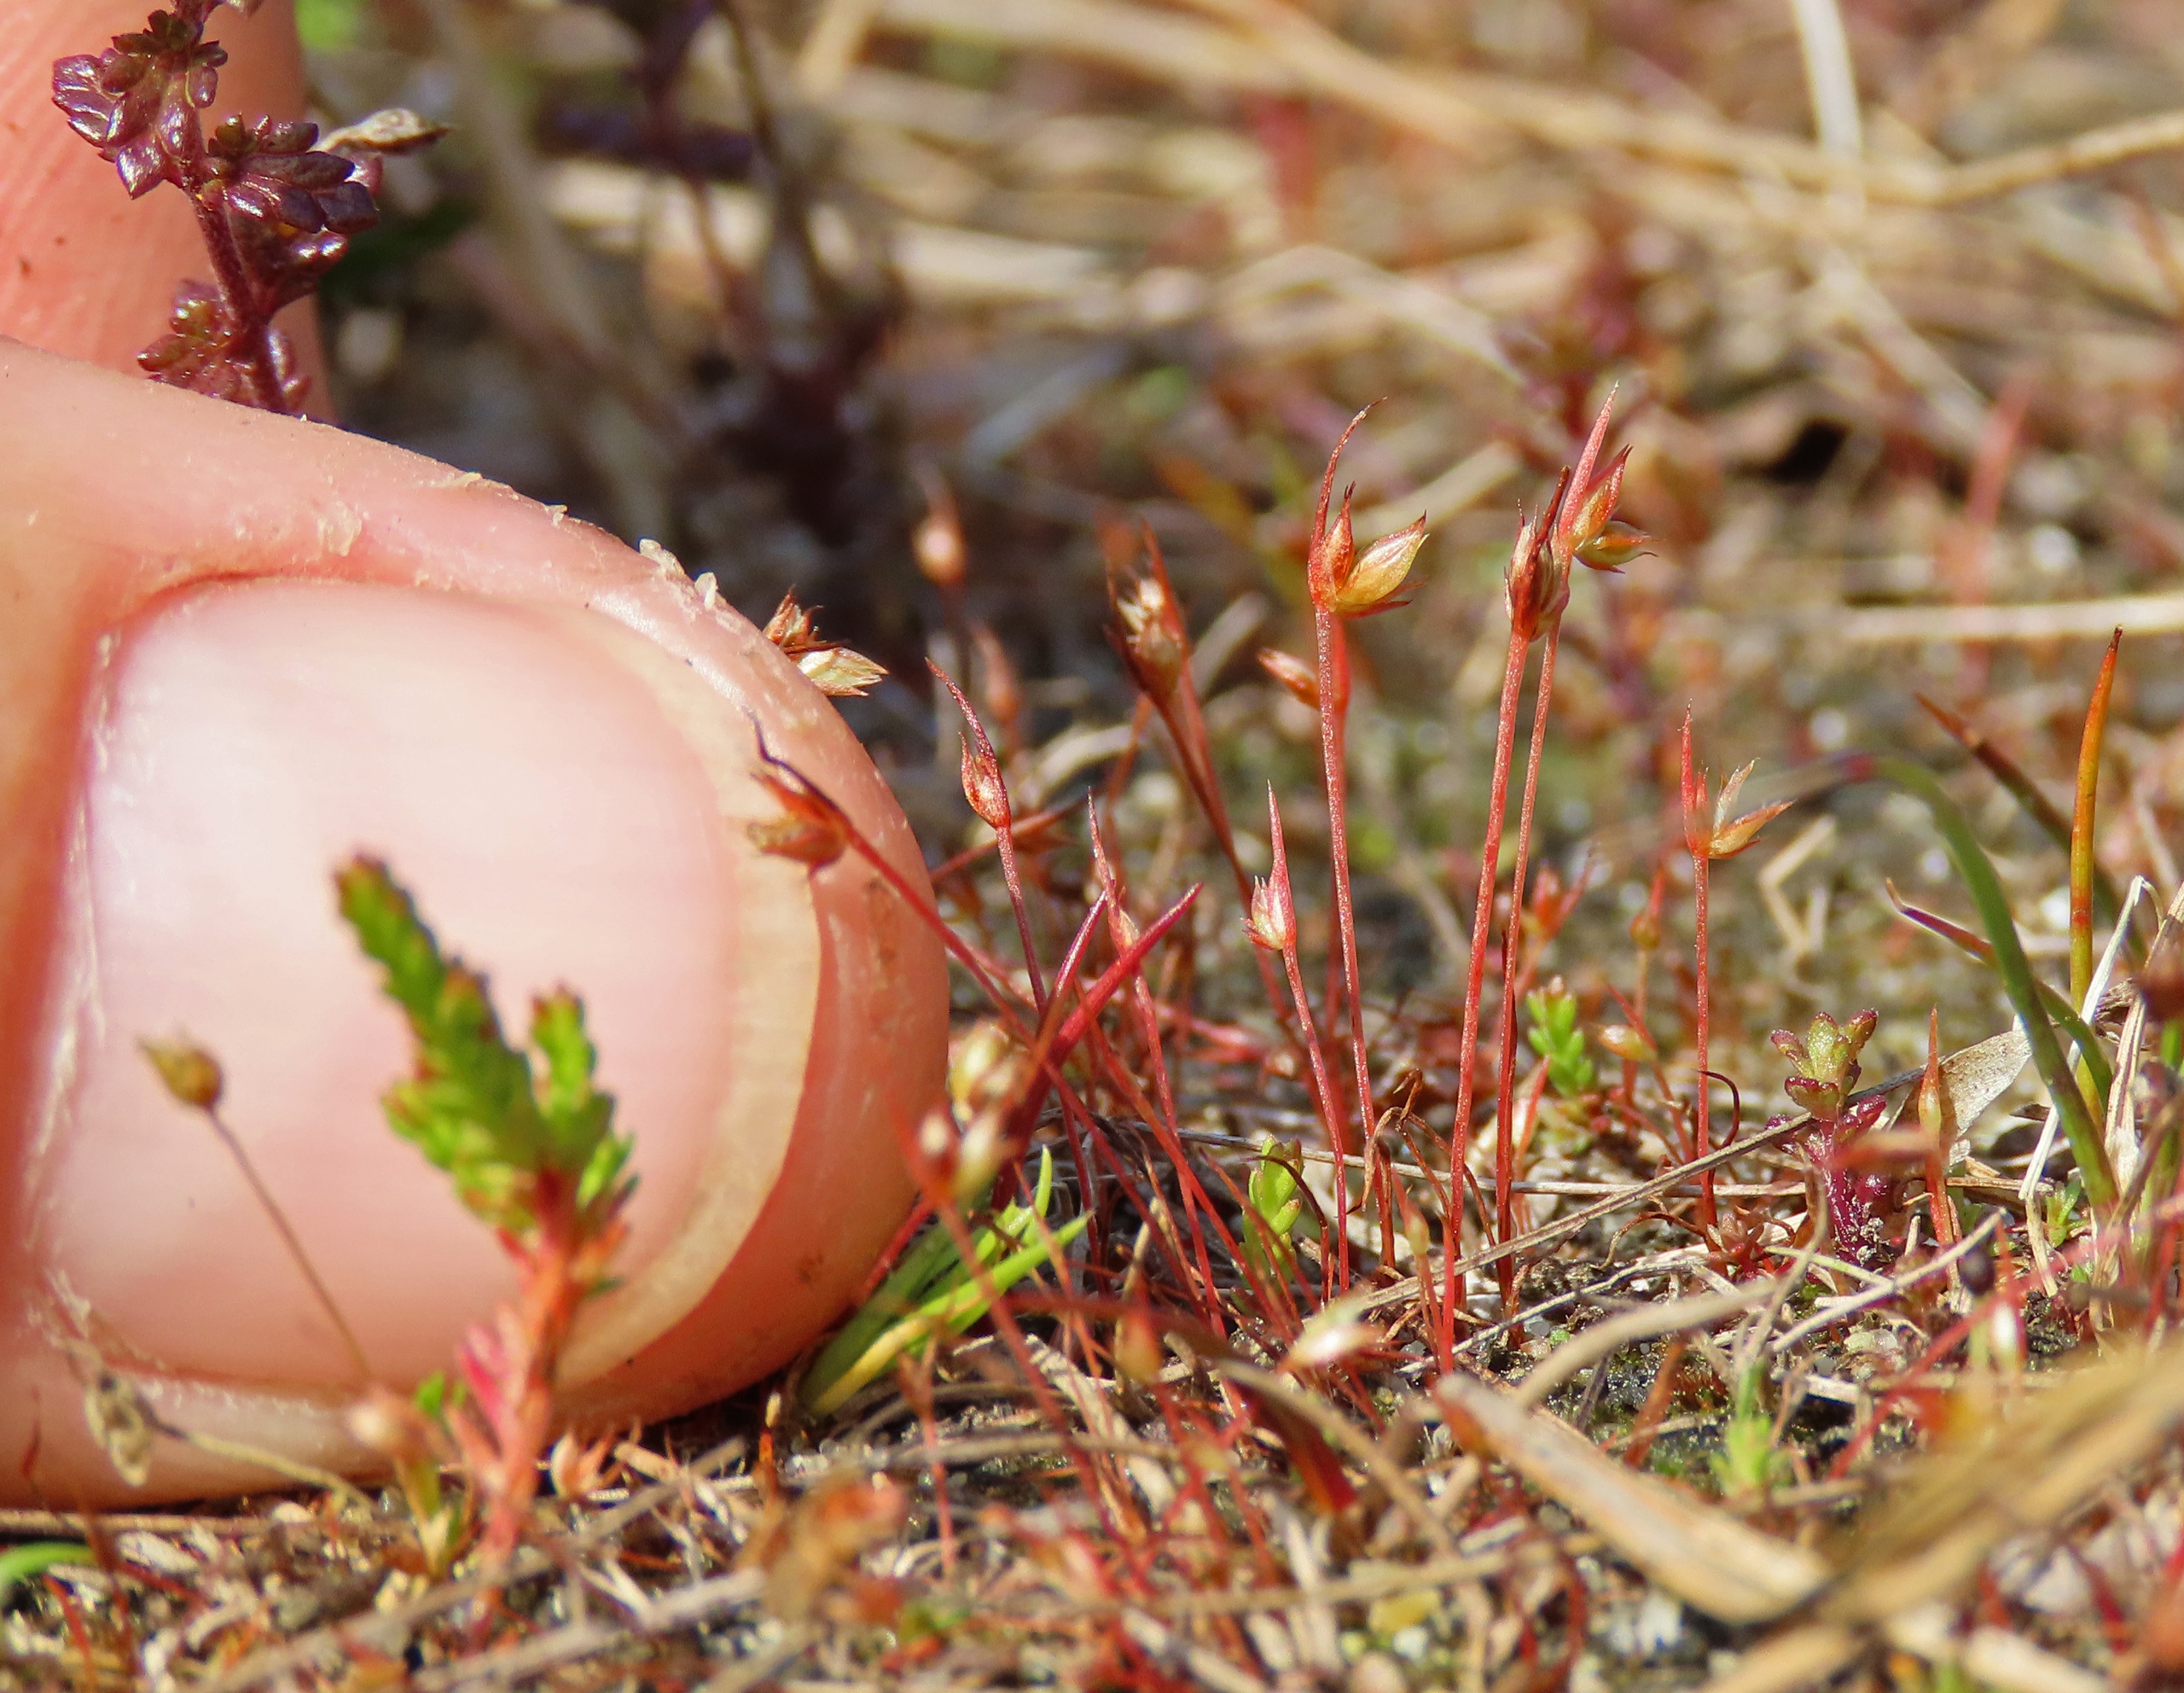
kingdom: Plantae
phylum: Tracheophyta
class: Liliopsida
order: Poales
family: Juncaceae
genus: Juncus
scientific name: Juncus capitatus
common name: Fin siv
